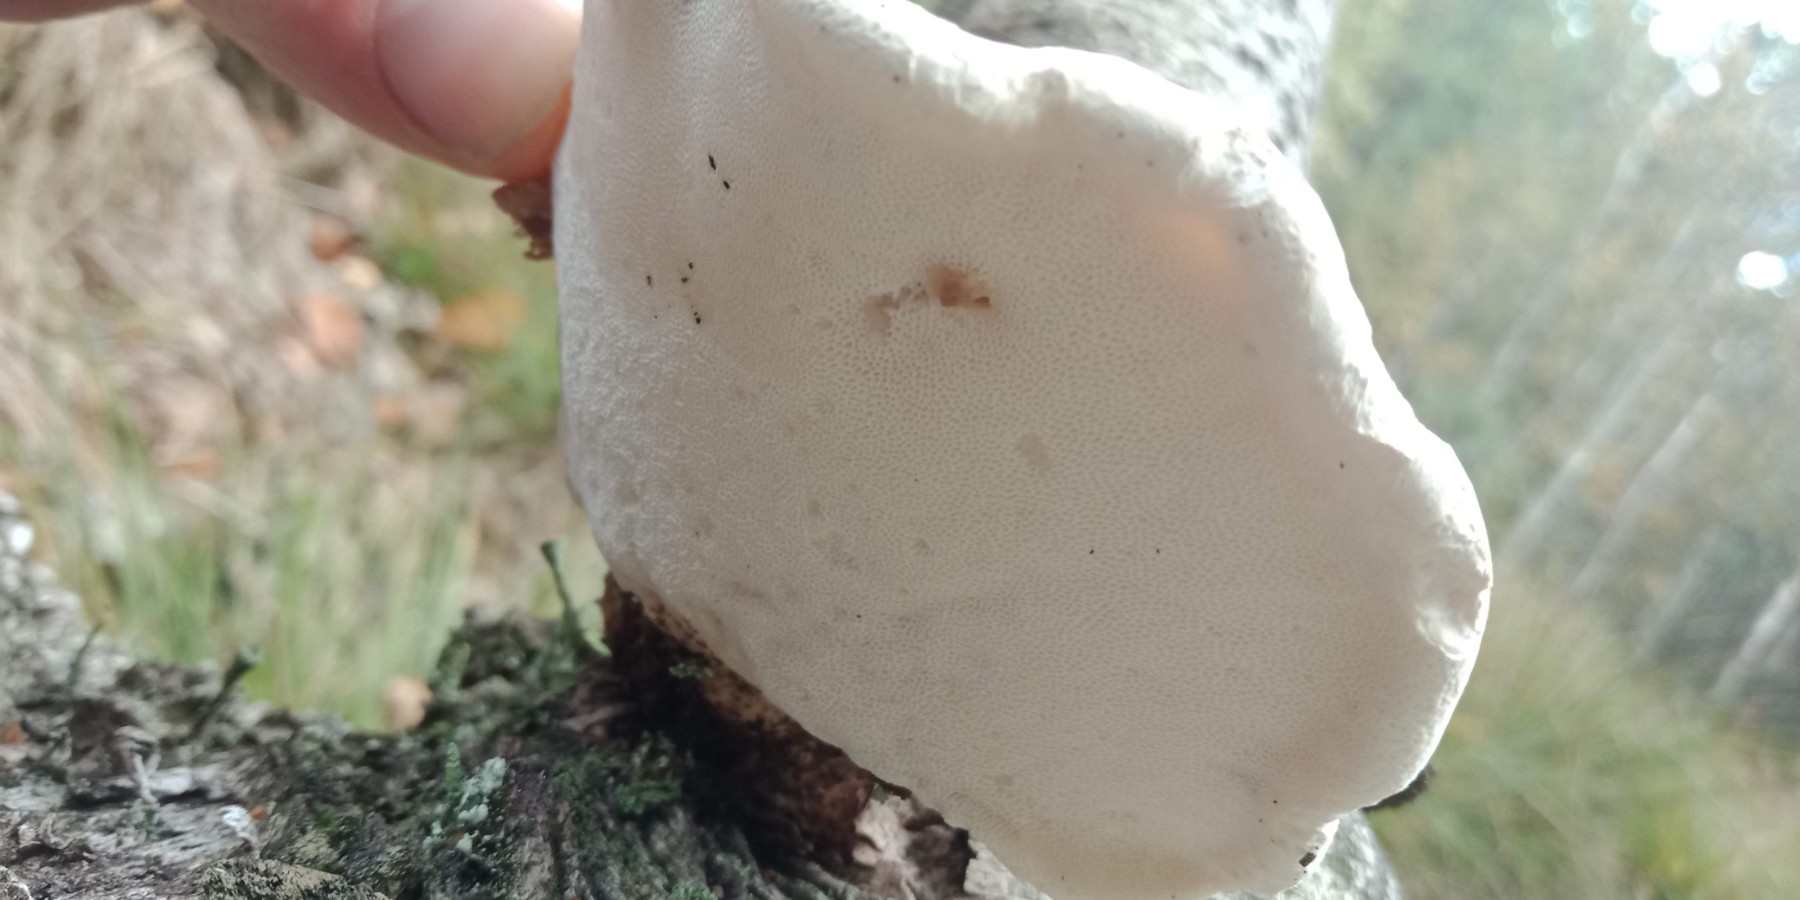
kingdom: Fungi
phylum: Basidiomycota
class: Agaricomycetes
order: Polyporales
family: Fomitopsidaceae
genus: Fomitopsis
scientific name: Fomitopsis betulina
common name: birkeporesvamp
